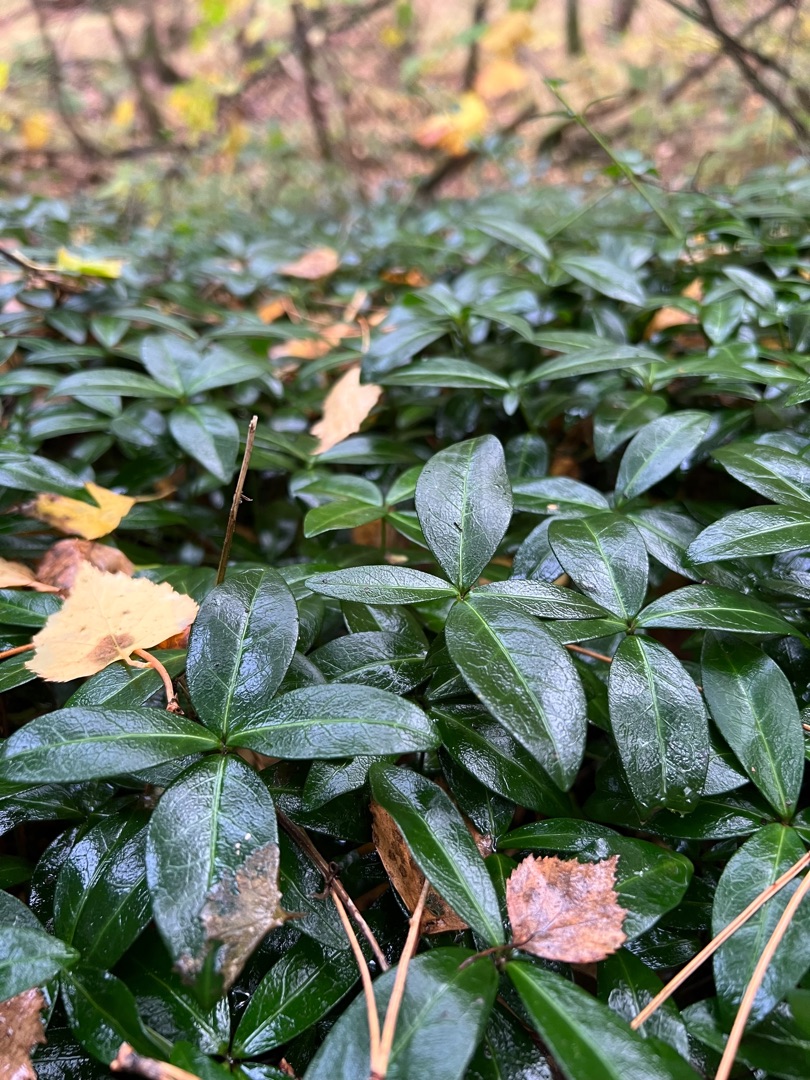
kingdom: Plantae
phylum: Tracheophyta
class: Magnoliopsida
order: Gentianales
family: Apocynaceae
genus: Vinca
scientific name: Vinca minor
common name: Liden singrøn
